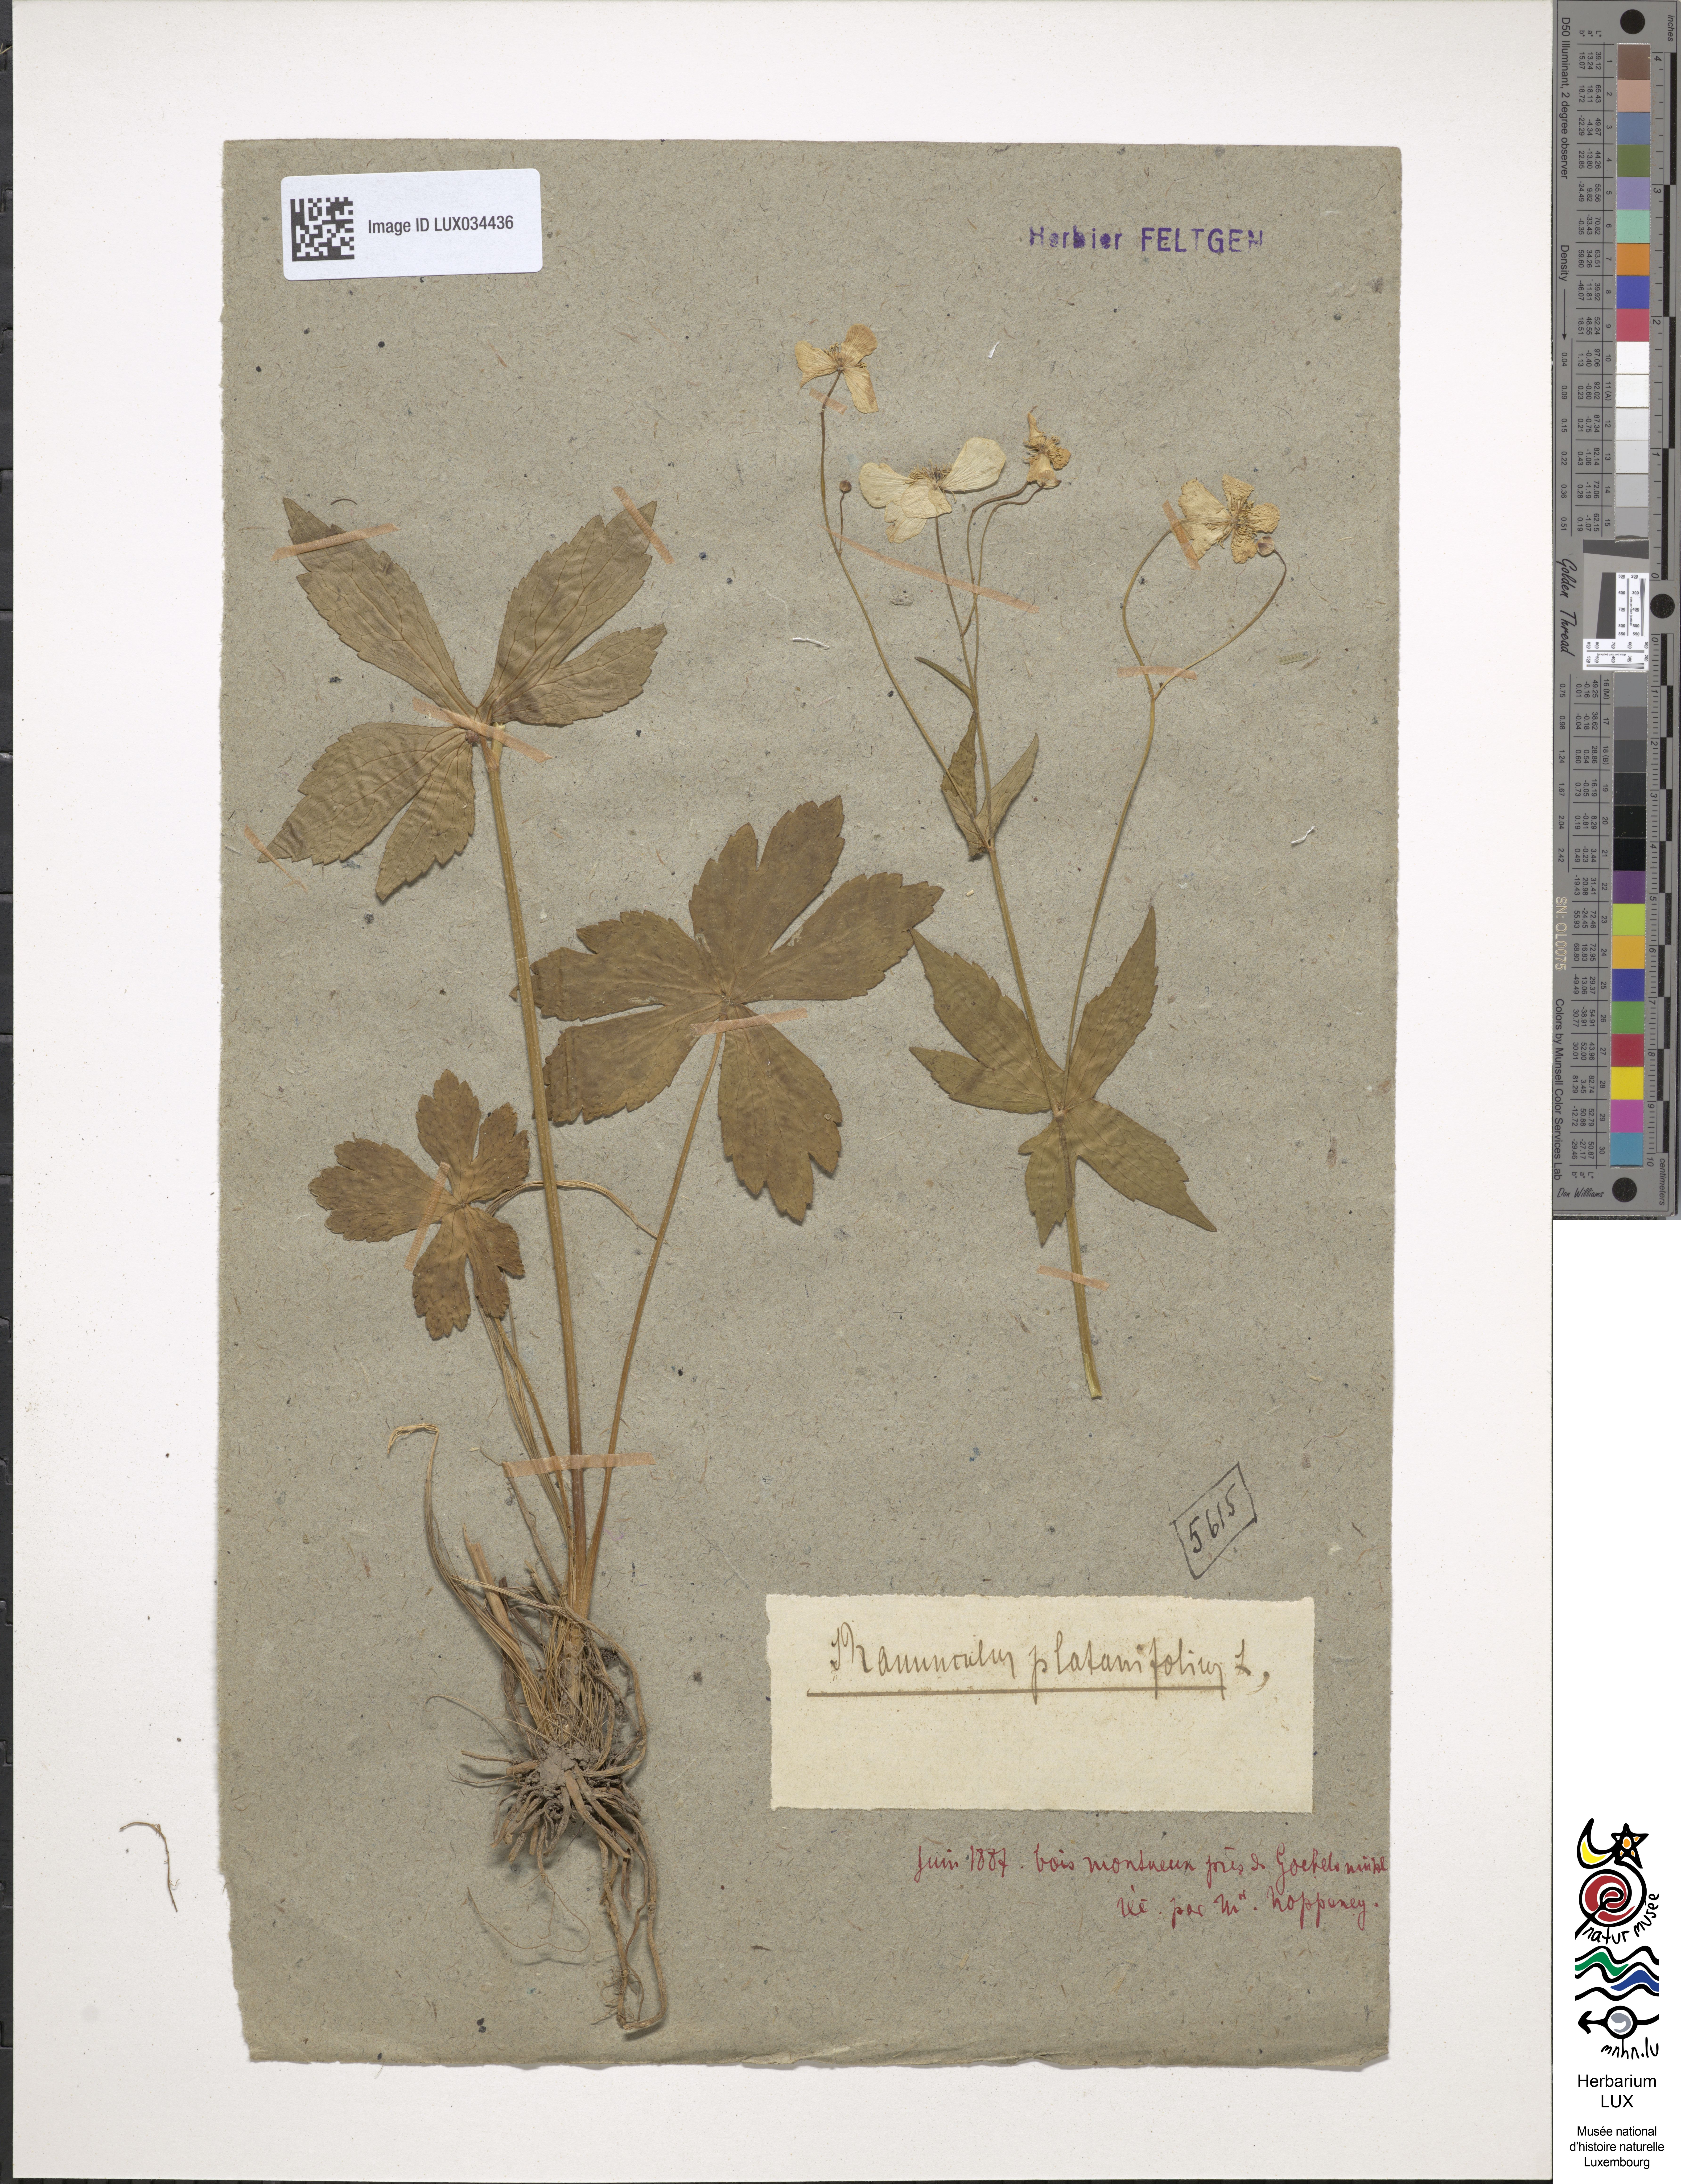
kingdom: Plantae
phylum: Tracheophyta
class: Magnoliopsida
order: Ranunculales
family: Ranunculaceae
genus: Ranunculus
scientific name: Ranunculus platanifolius
